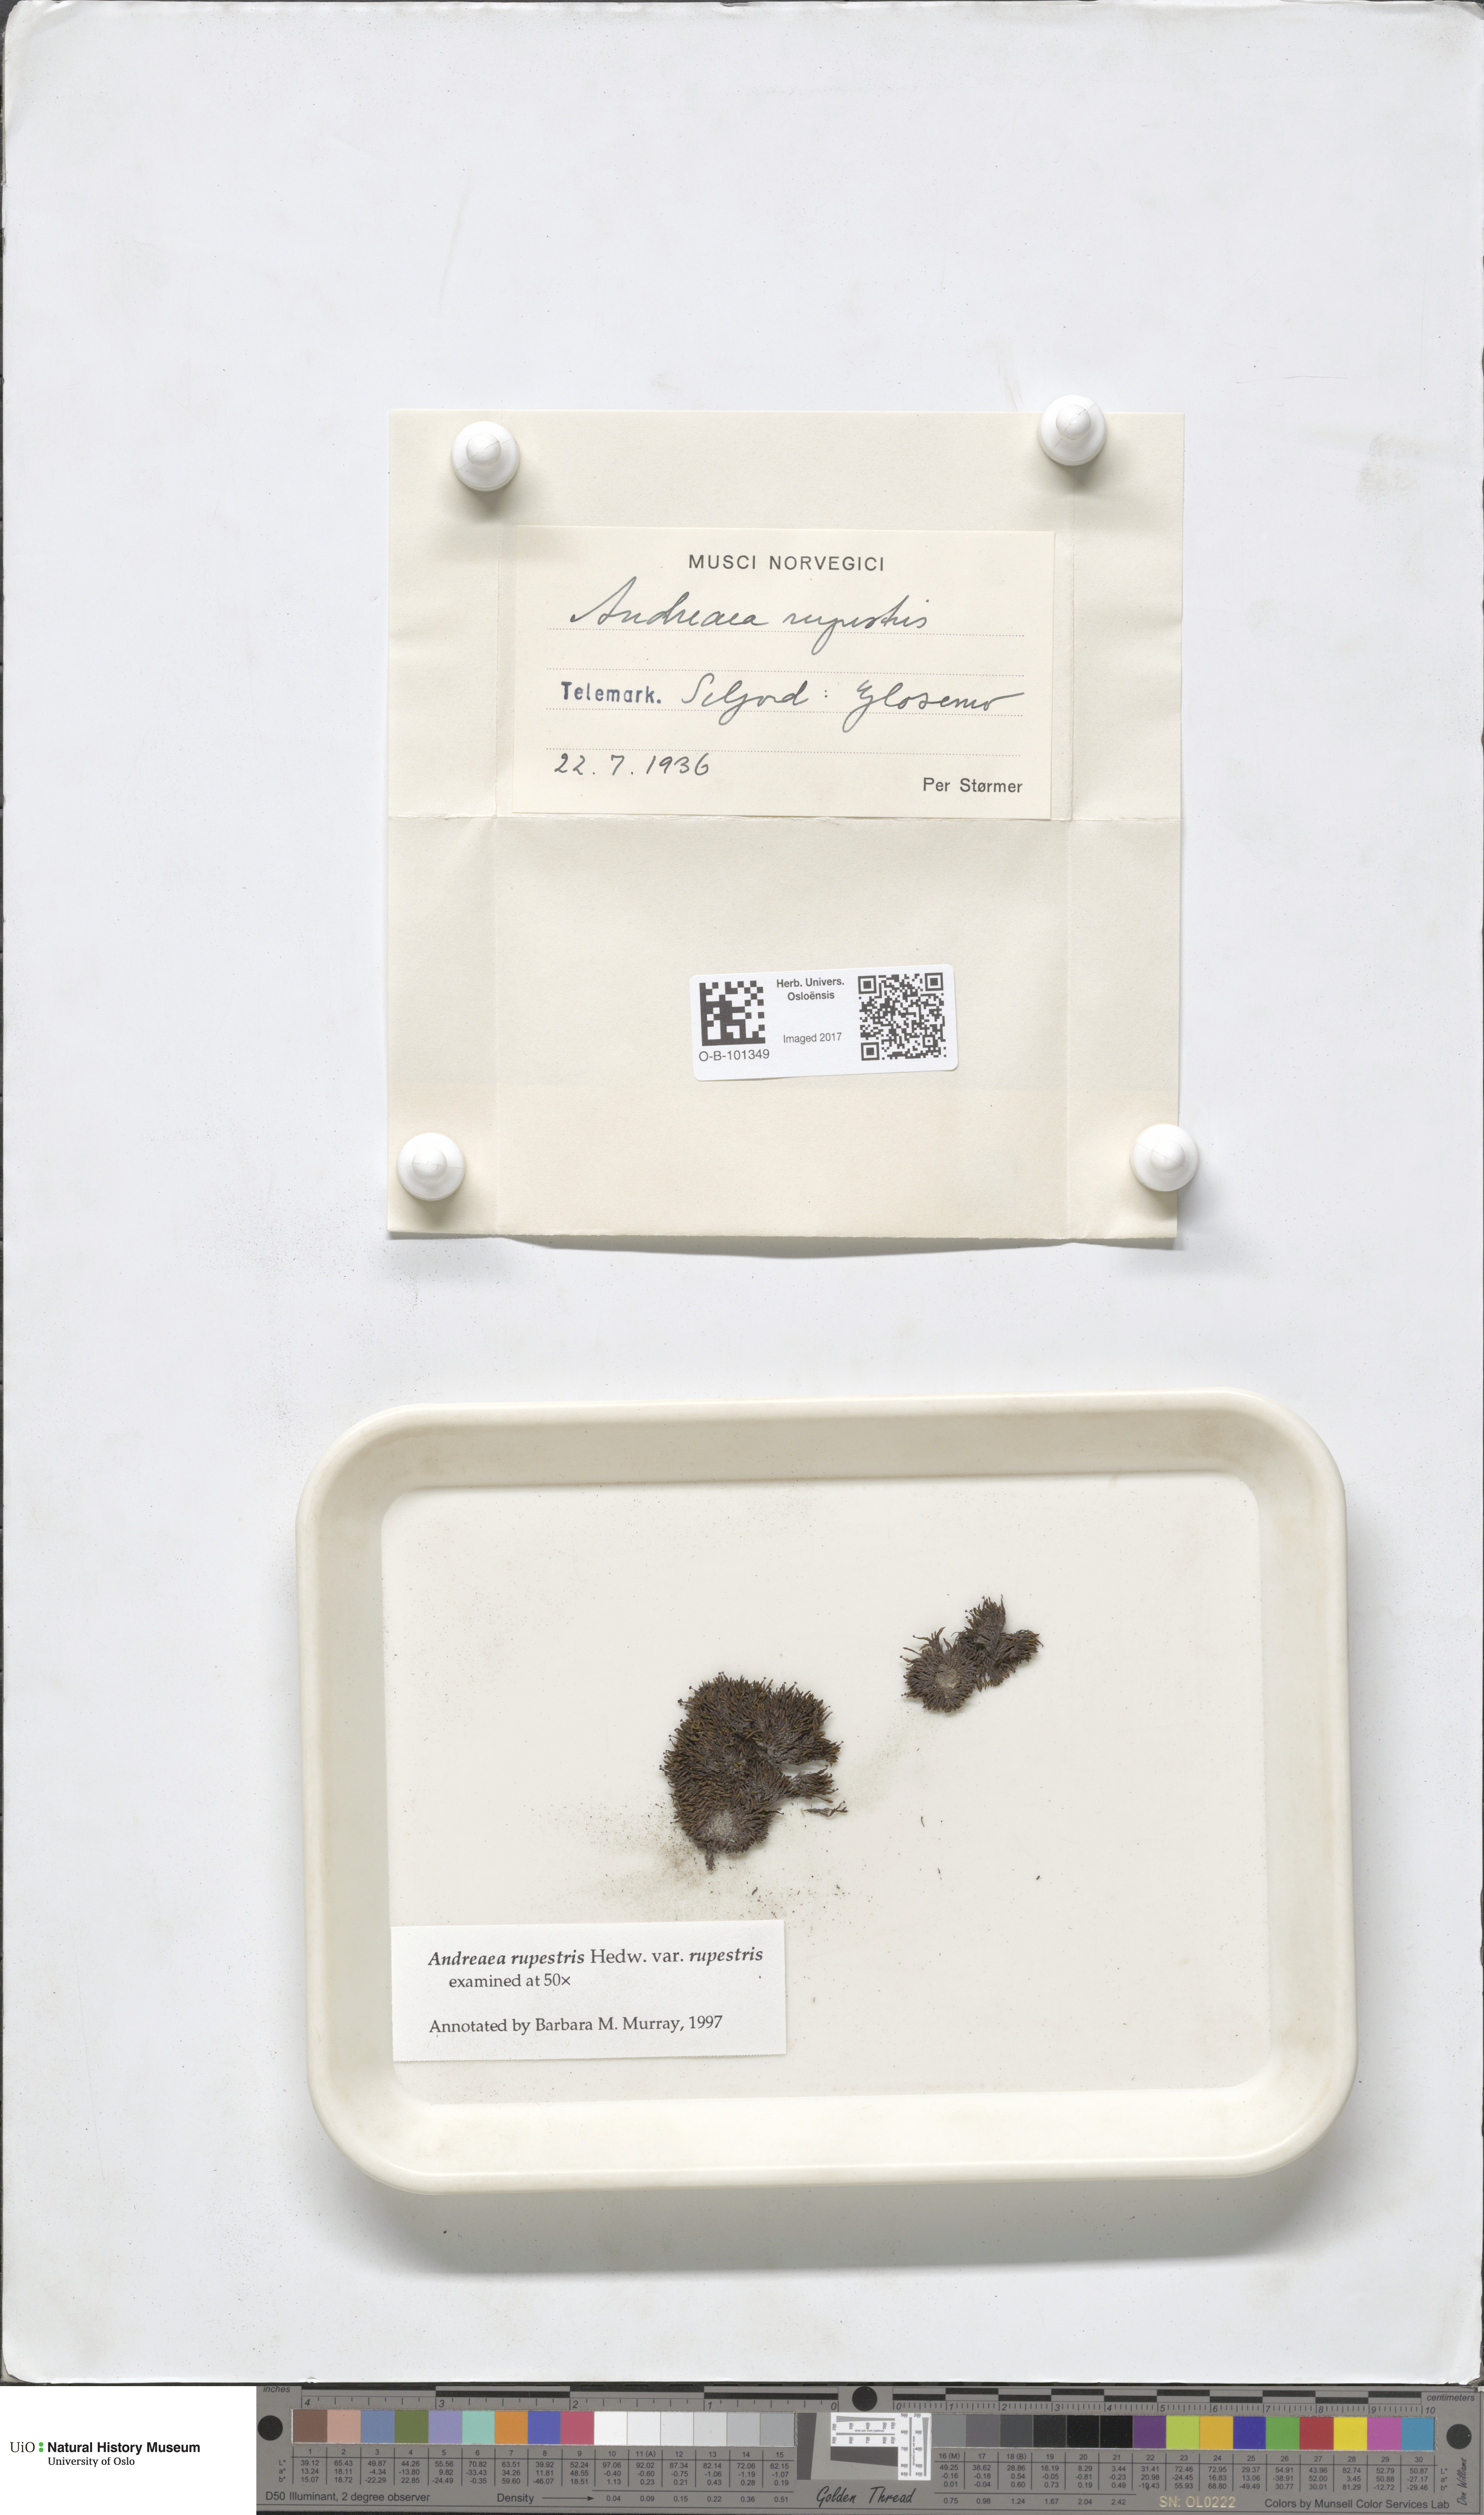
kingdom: Plantae
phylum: Bryophyta
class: Andreaeopsida
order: Andreaeales
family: Andreaeaceae
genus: Andreaea
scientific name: Andreaea rupestris
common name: Black rock moss
